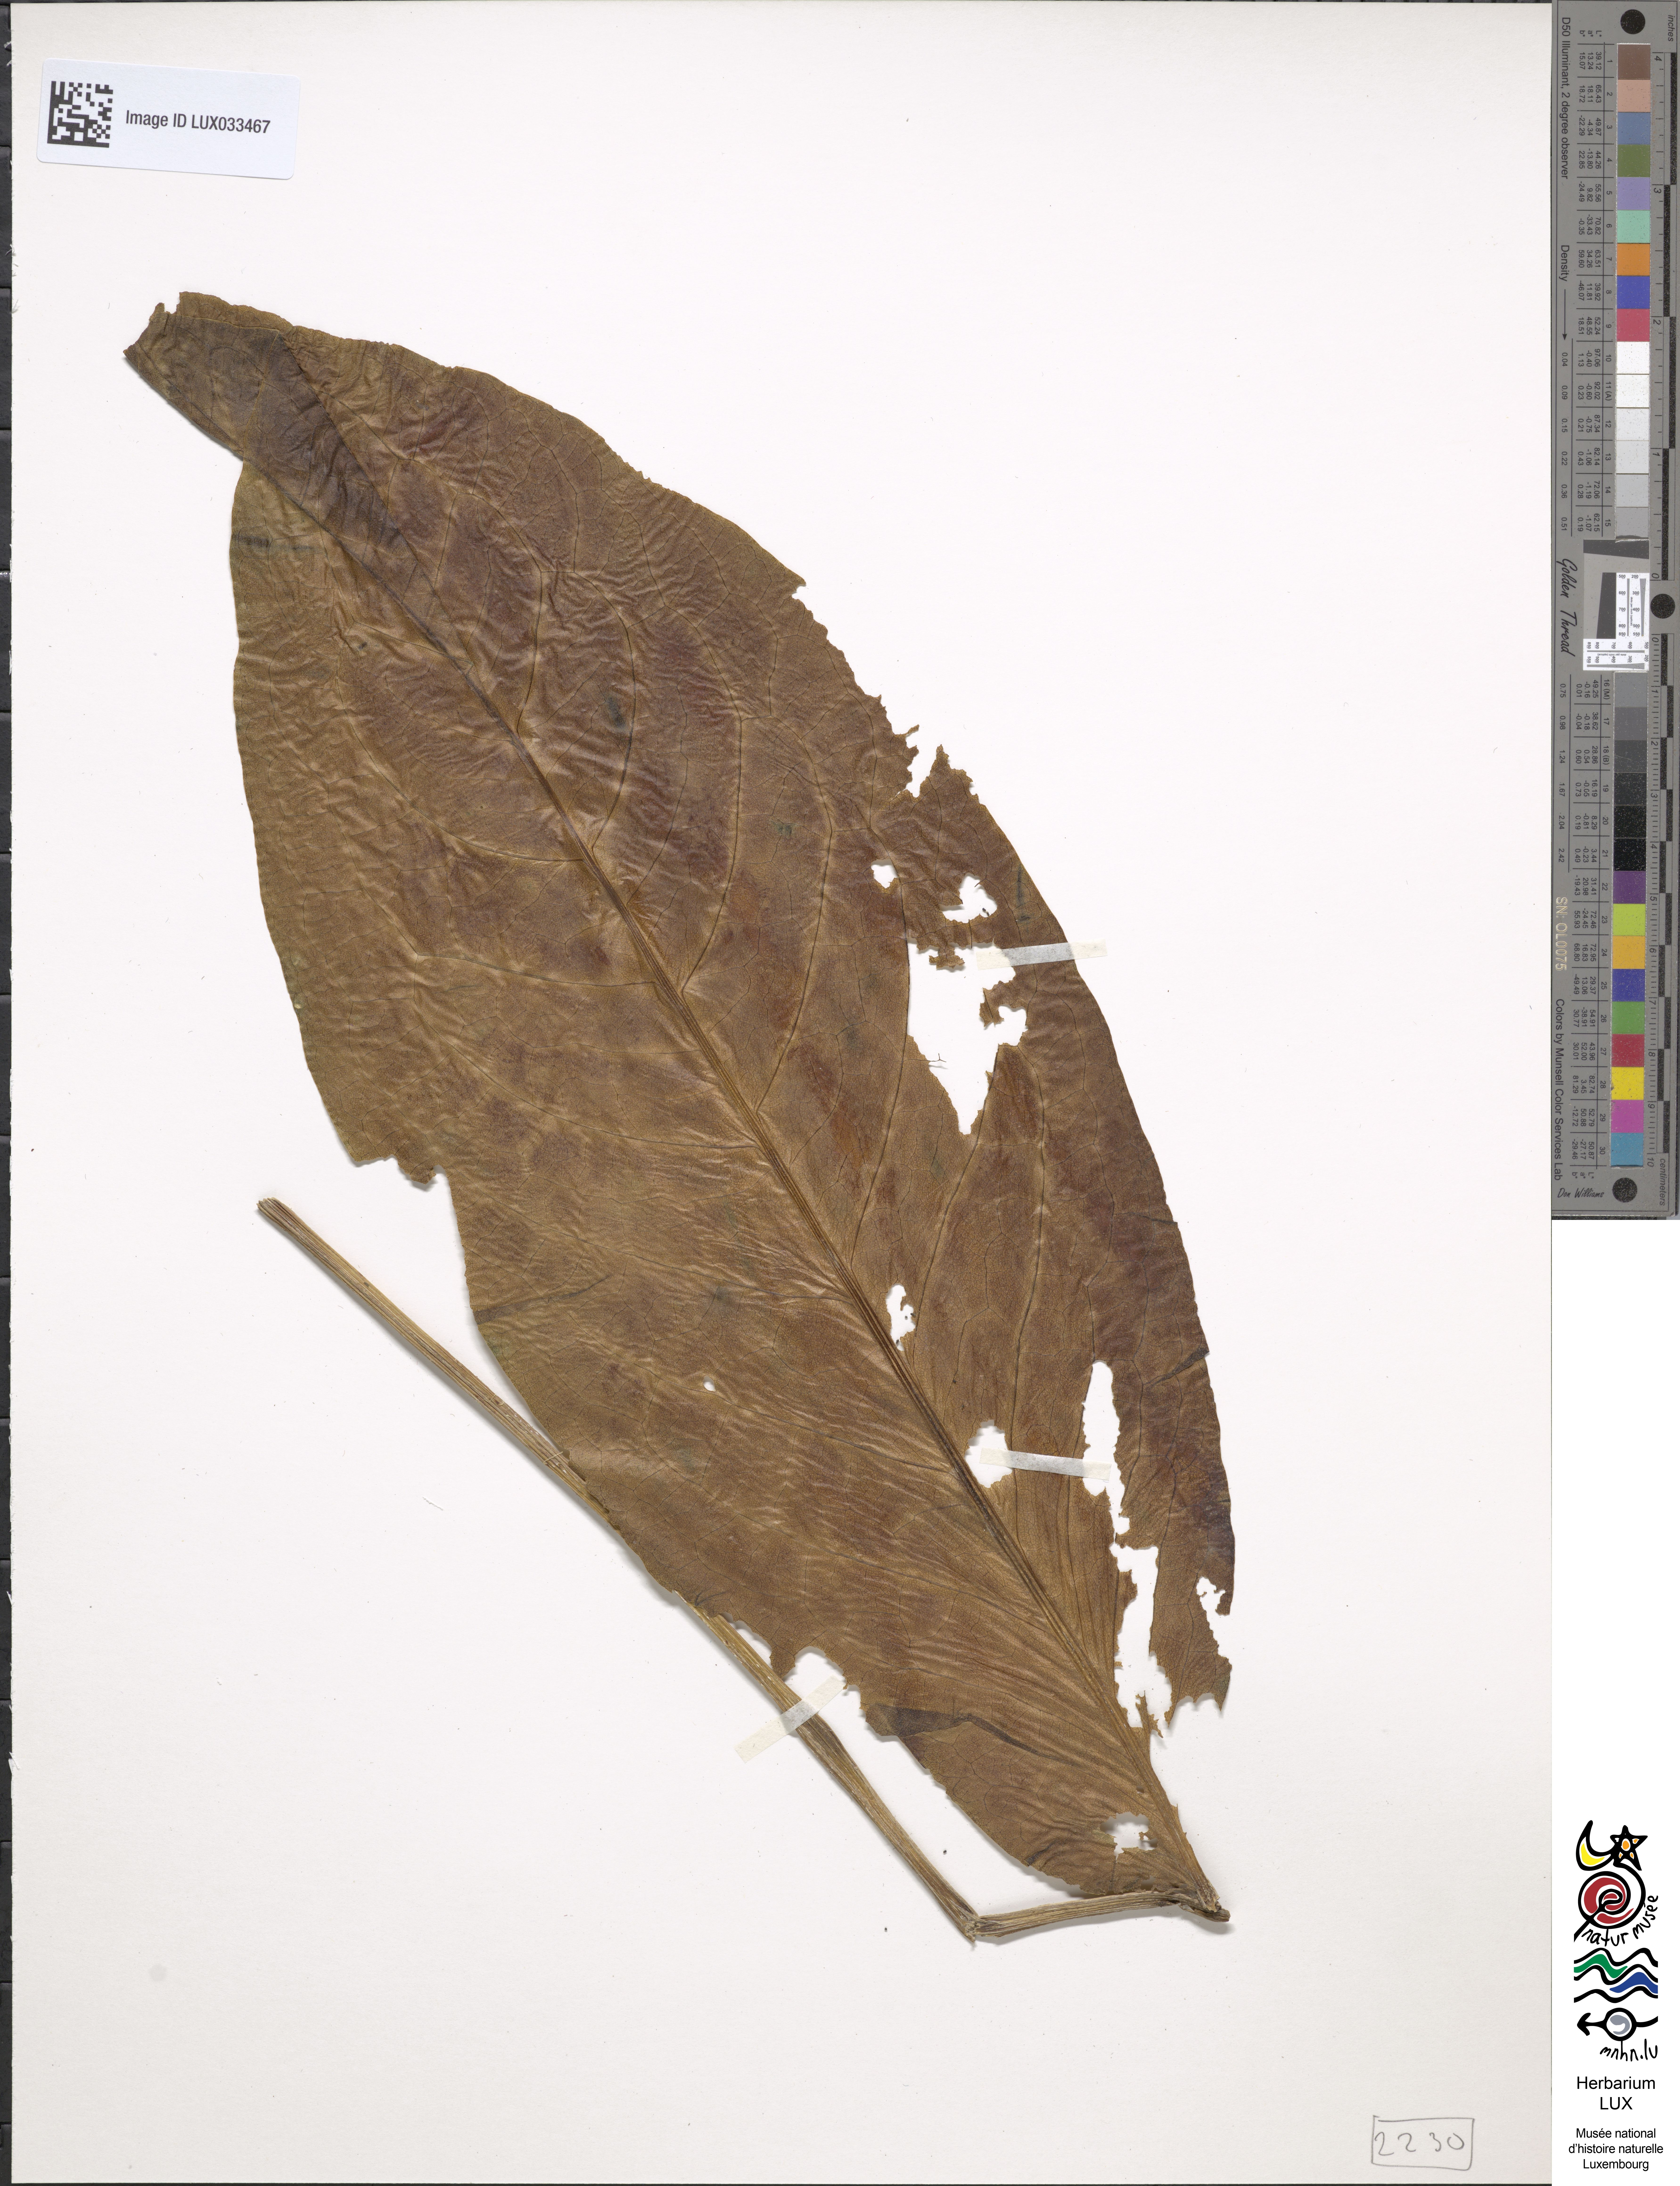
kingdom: Plantae
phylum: Tracheophyta
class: Magnoliopsida
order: Caryophyllales
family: Polygonaceae
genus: Rumex
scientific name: Rumex patientia
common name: Patience dock
